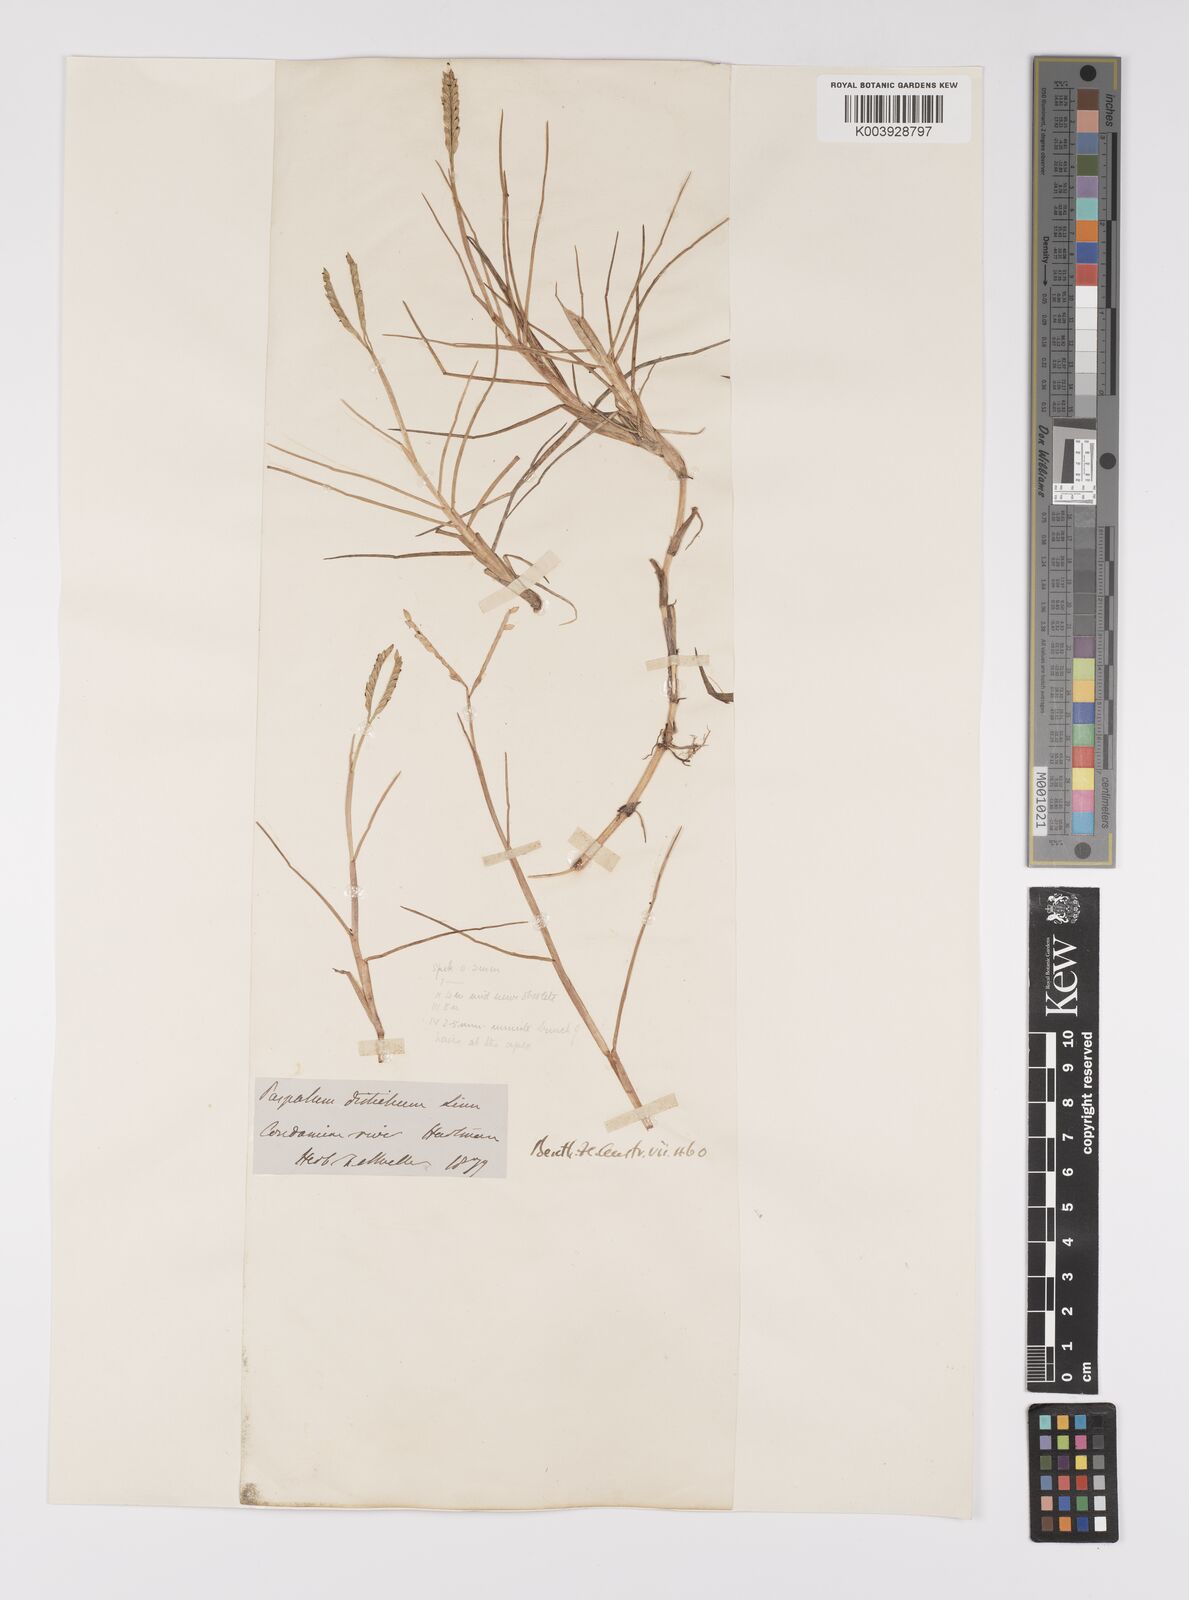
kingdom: Plantae
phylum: Tracheophyta
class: Liliopsida
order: Poales
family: Poaceae
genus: Paspalum
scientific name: Paspalum vaginatum
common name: Seashore paspalum
